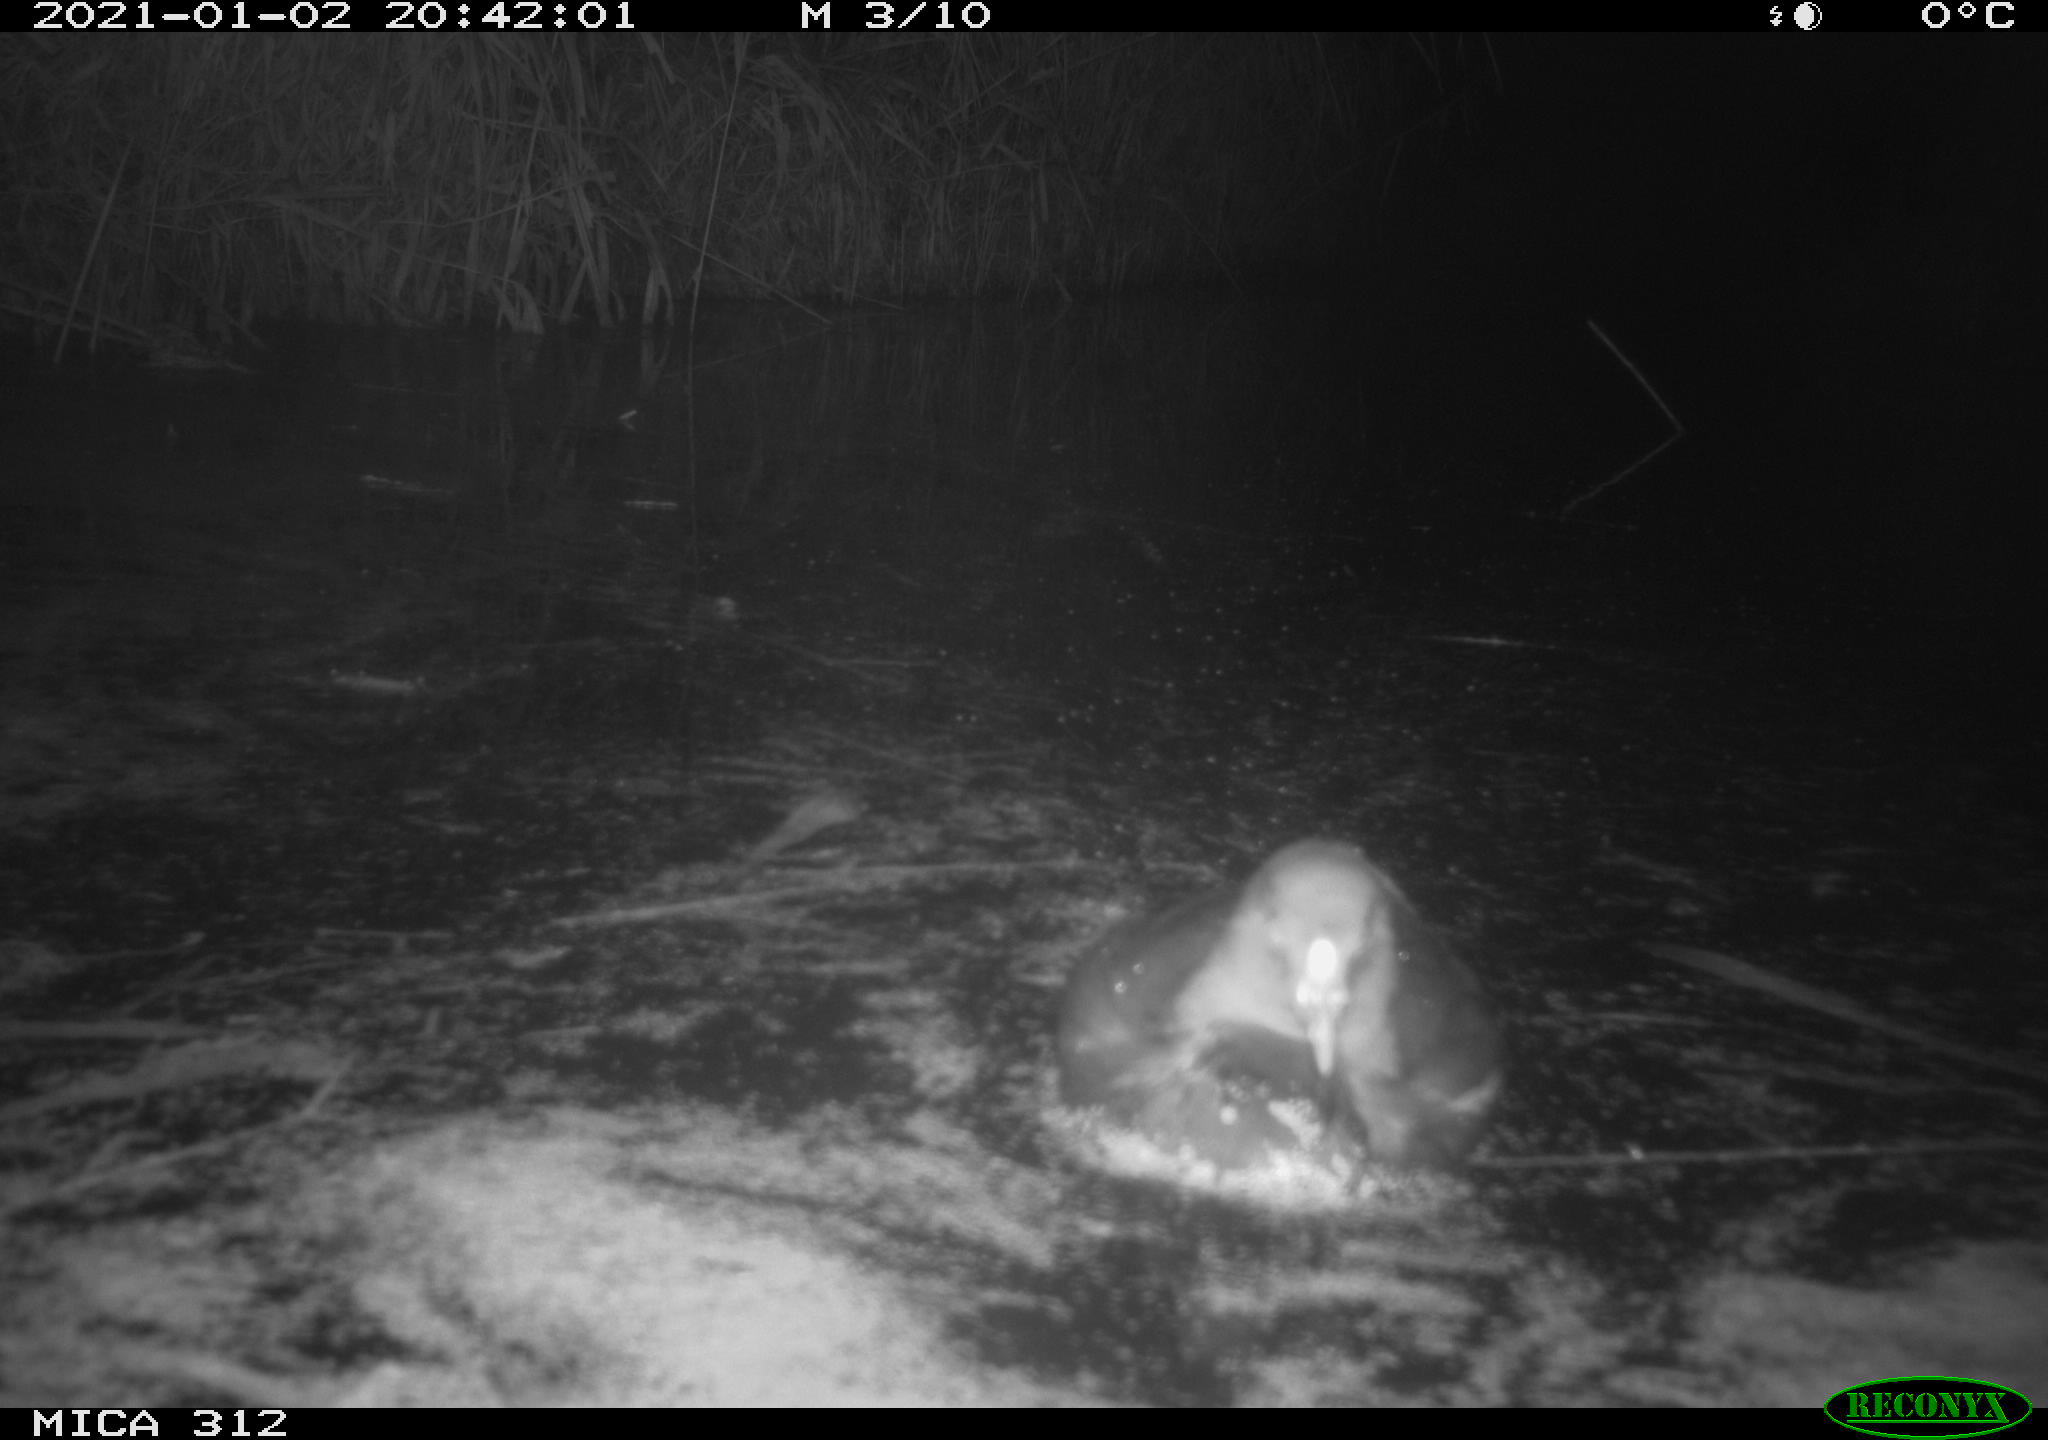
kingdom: Animalia
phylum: Chordata
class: Aves
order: Gruiformes
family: Rallidae
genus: Gallinula
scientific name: Gallinula chloropus
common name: Common moorhen
